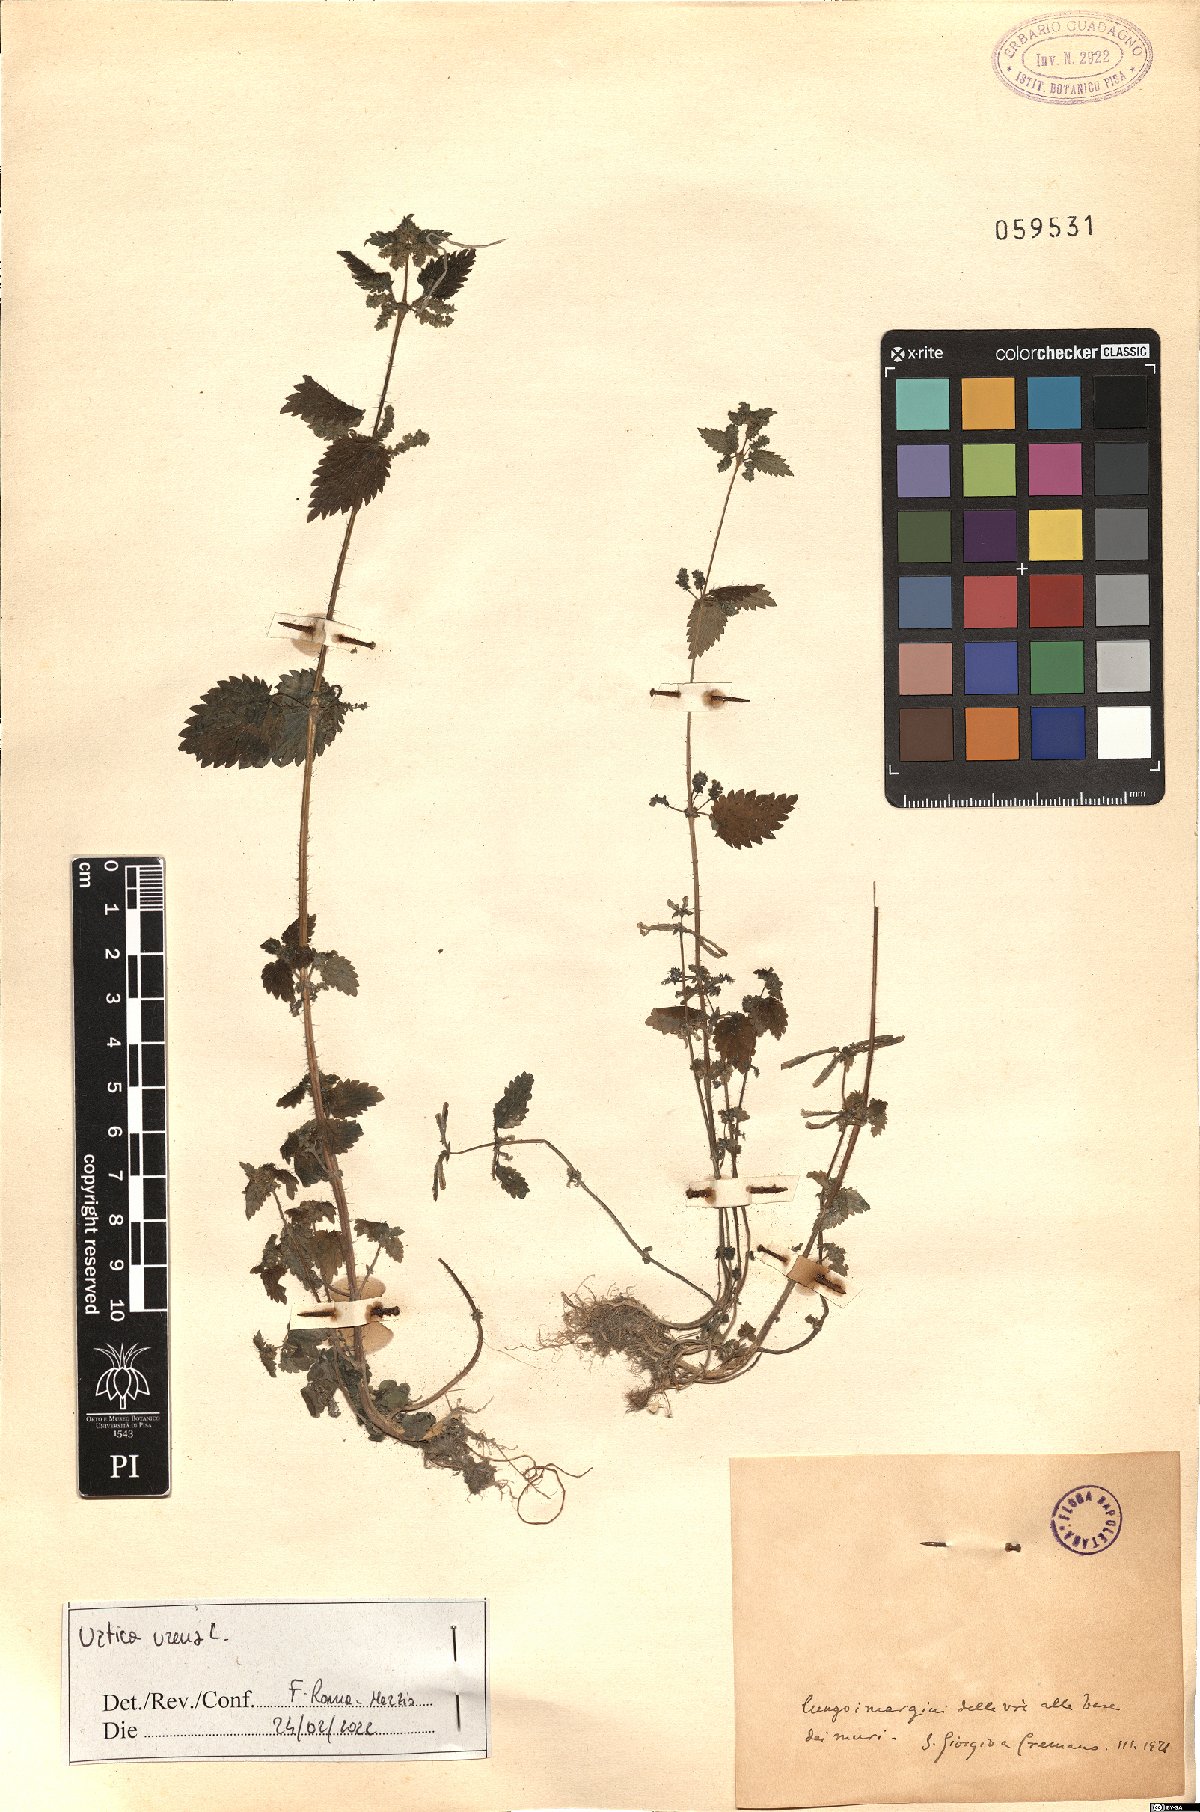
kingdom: Plantae
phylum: Tracheophyta
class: Magnoliopsida
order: Rosales
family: Urticaceae
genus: Urtica
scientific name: Urtica urens
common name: Dwarf nettle
